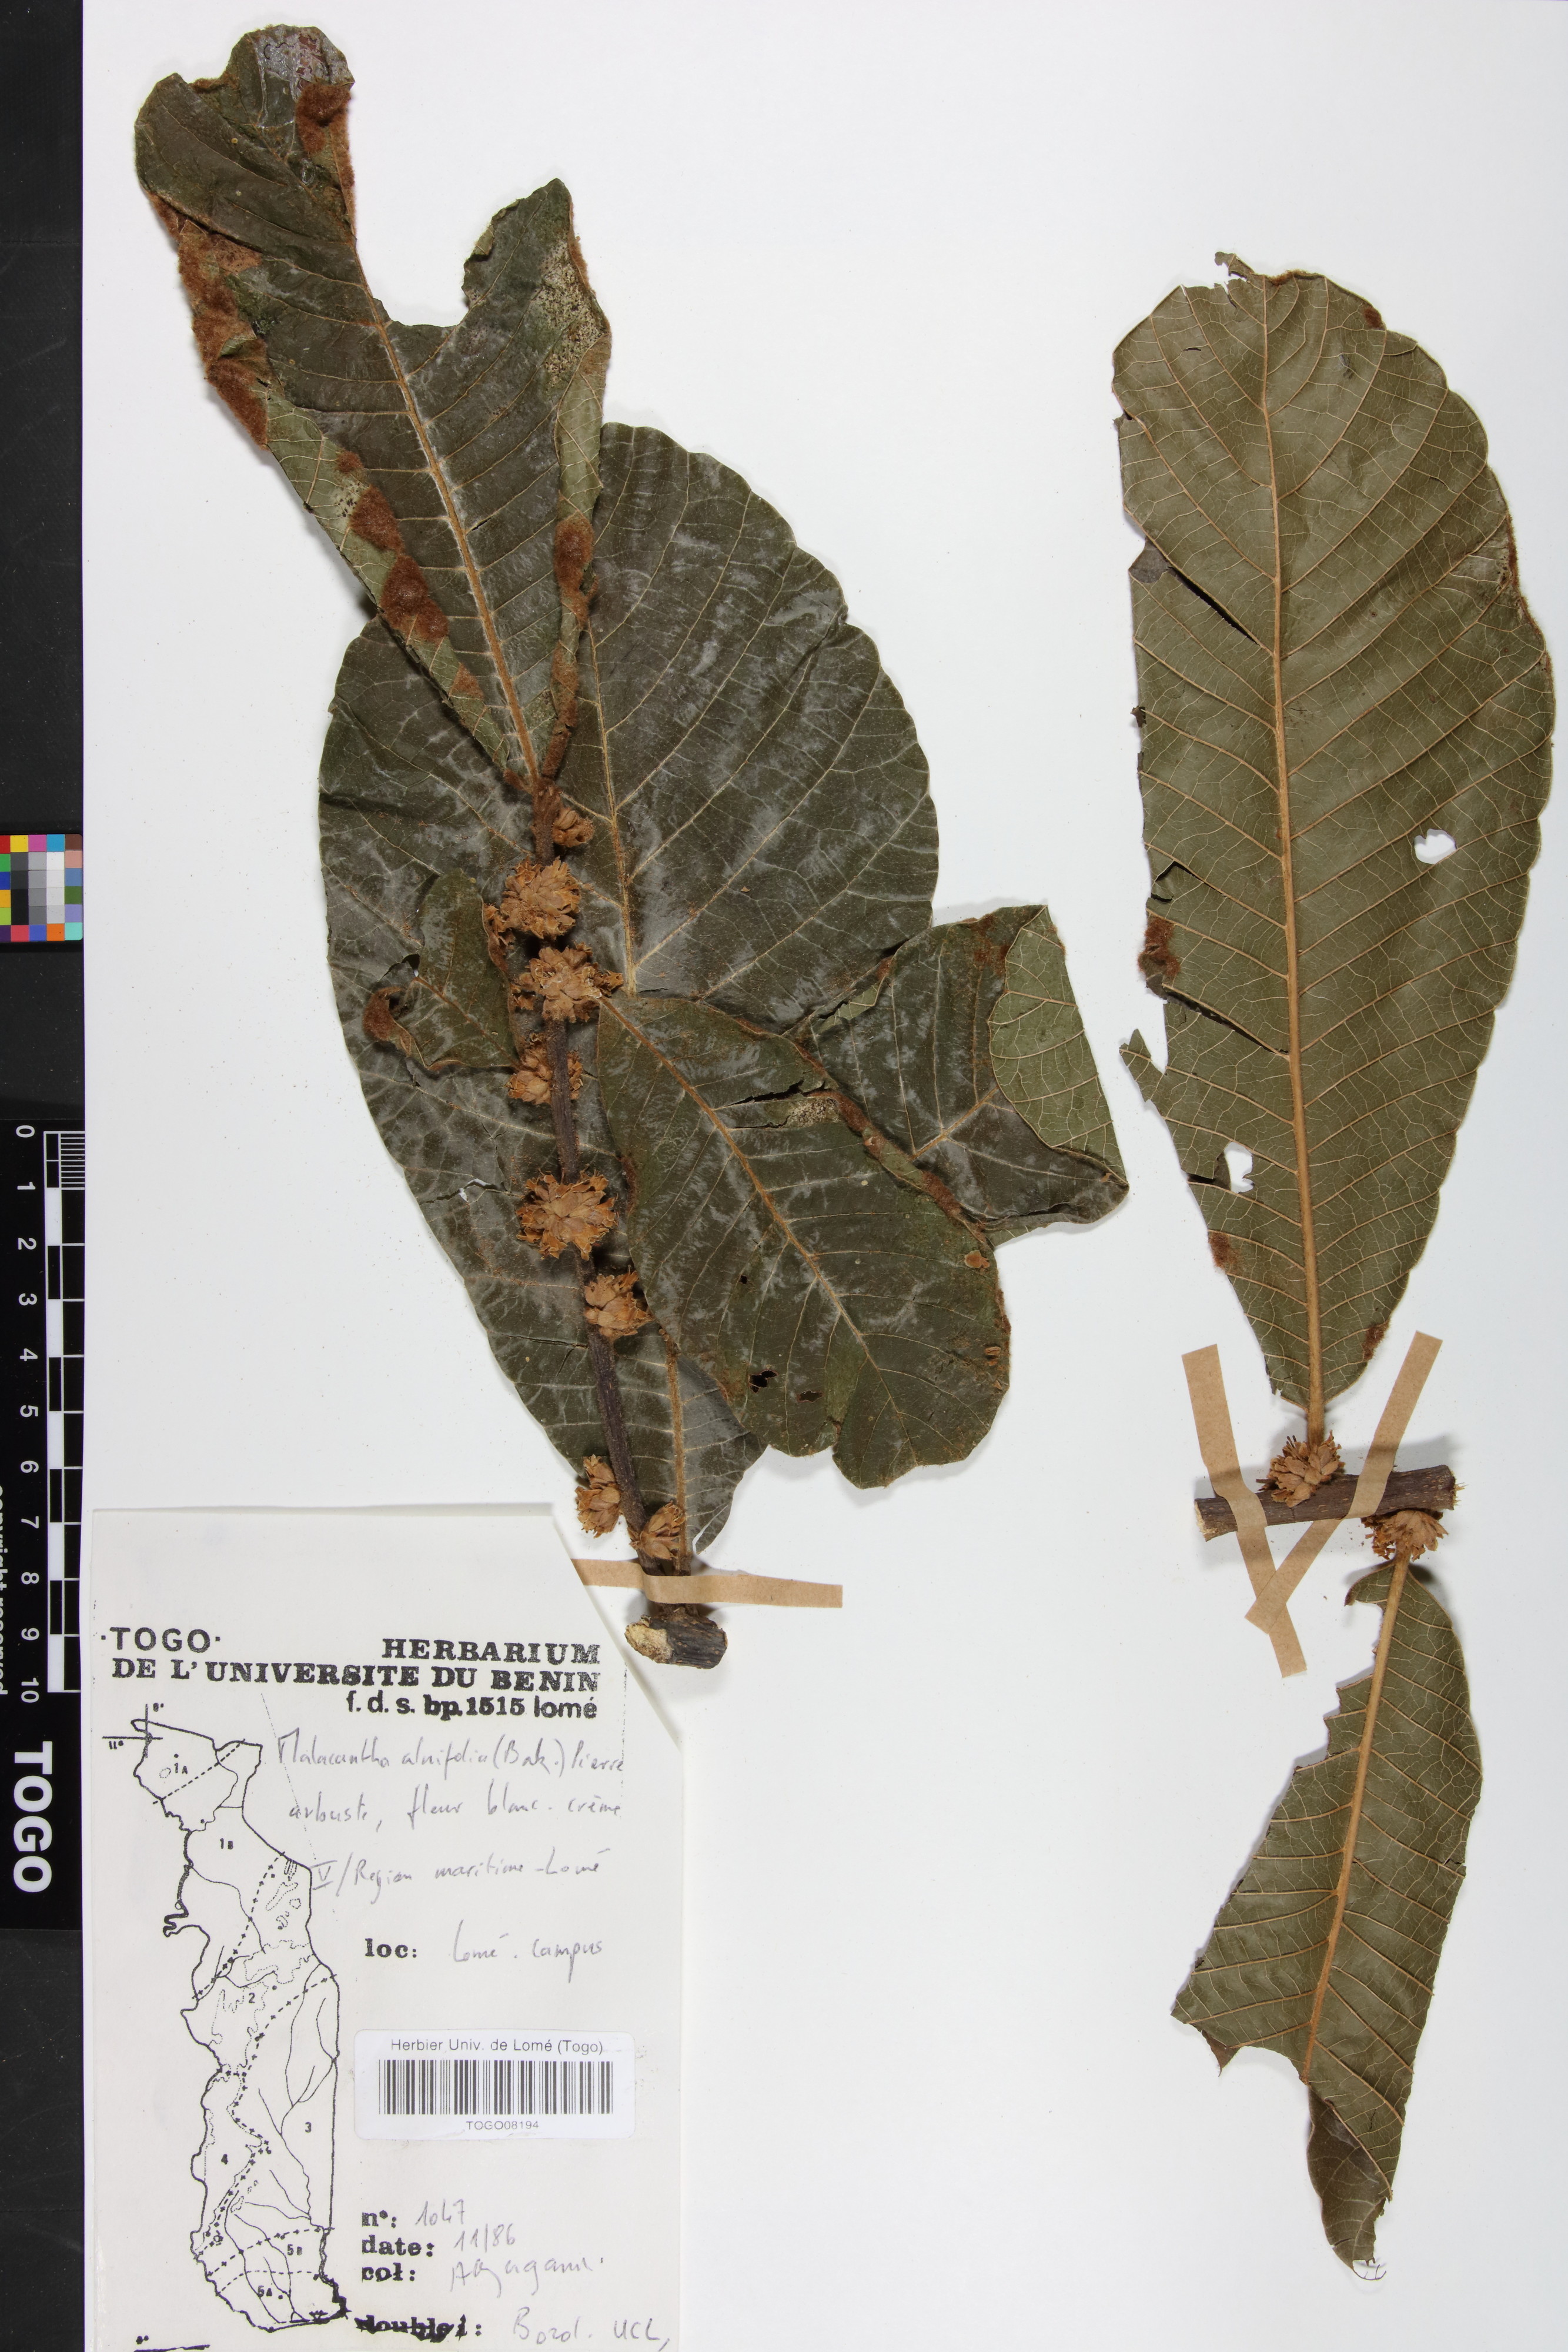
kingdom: Plantae
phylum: Tracheophyta
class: Magnoliopsida
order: Ericales
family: Sapotaceae
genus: Malacantha
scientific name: Malacantha alnifolia
